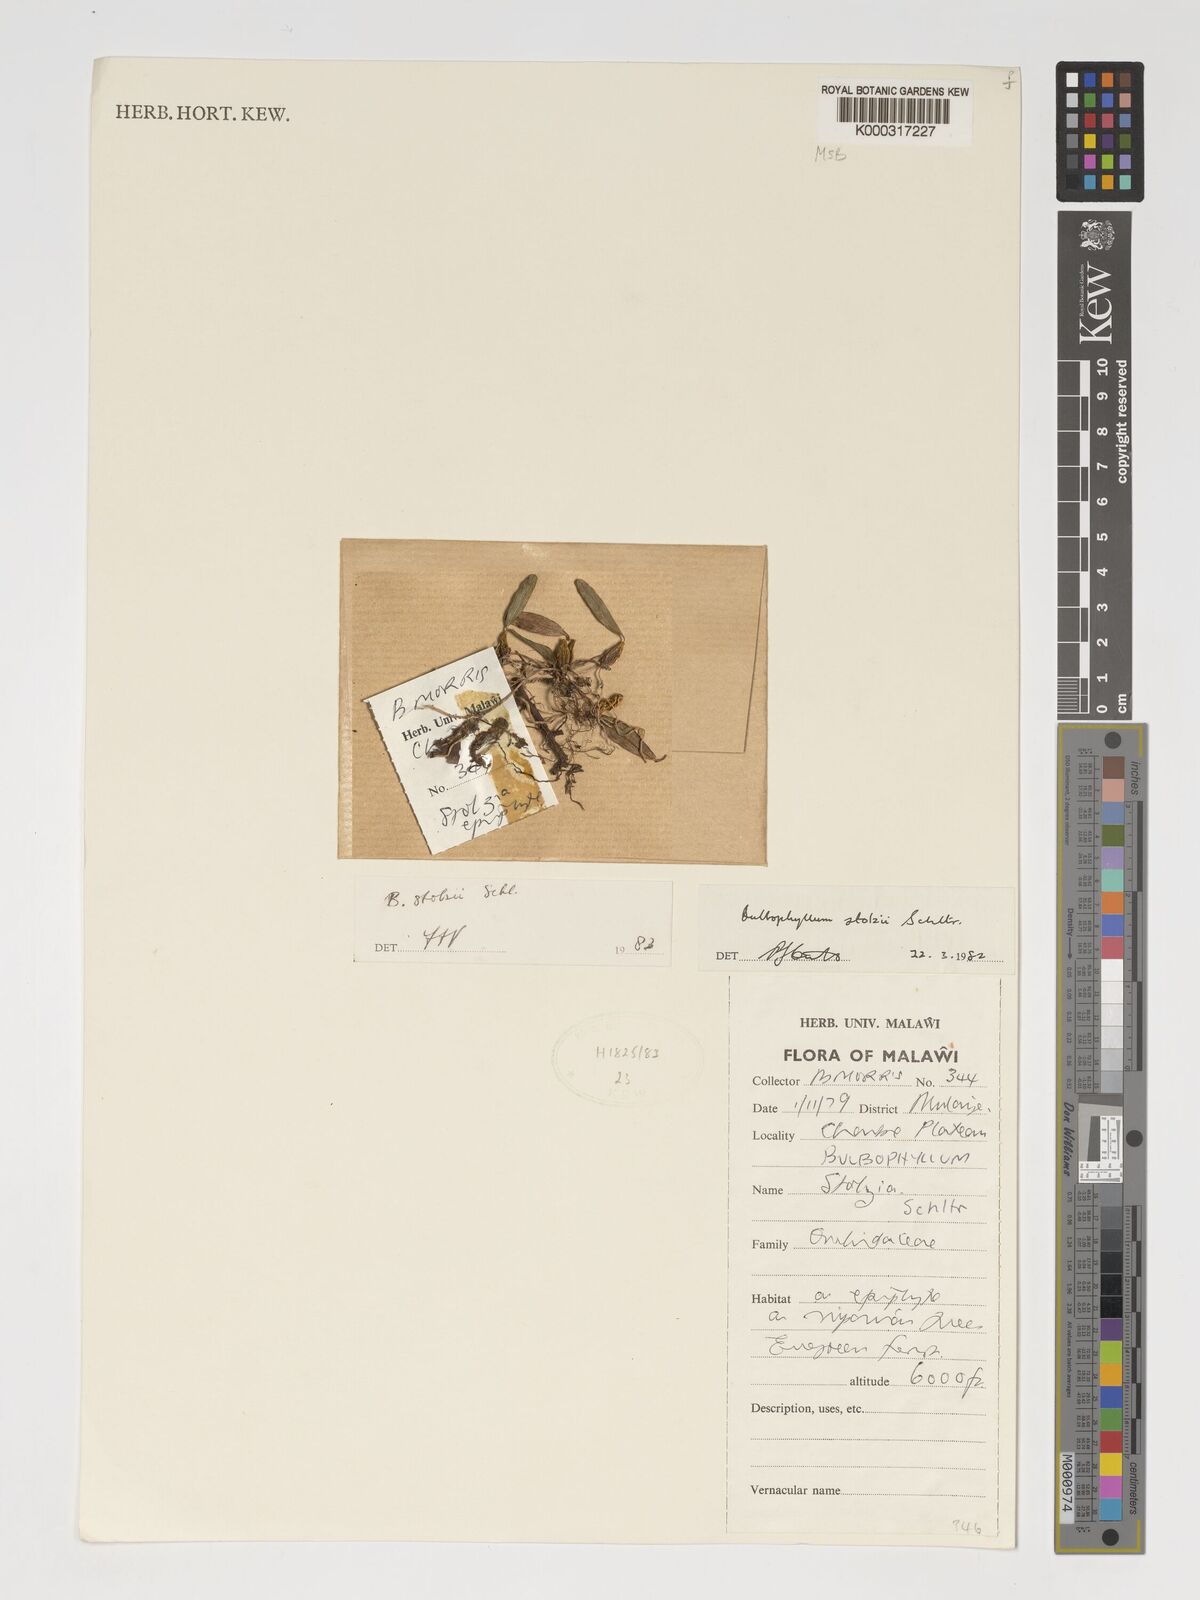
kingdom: Plantae
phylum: Tracheophyta
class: Liliopsida
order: Asparagales
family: Orchidaceae
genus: Bulbophyllum
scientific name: Bulbophyllum stolzii
